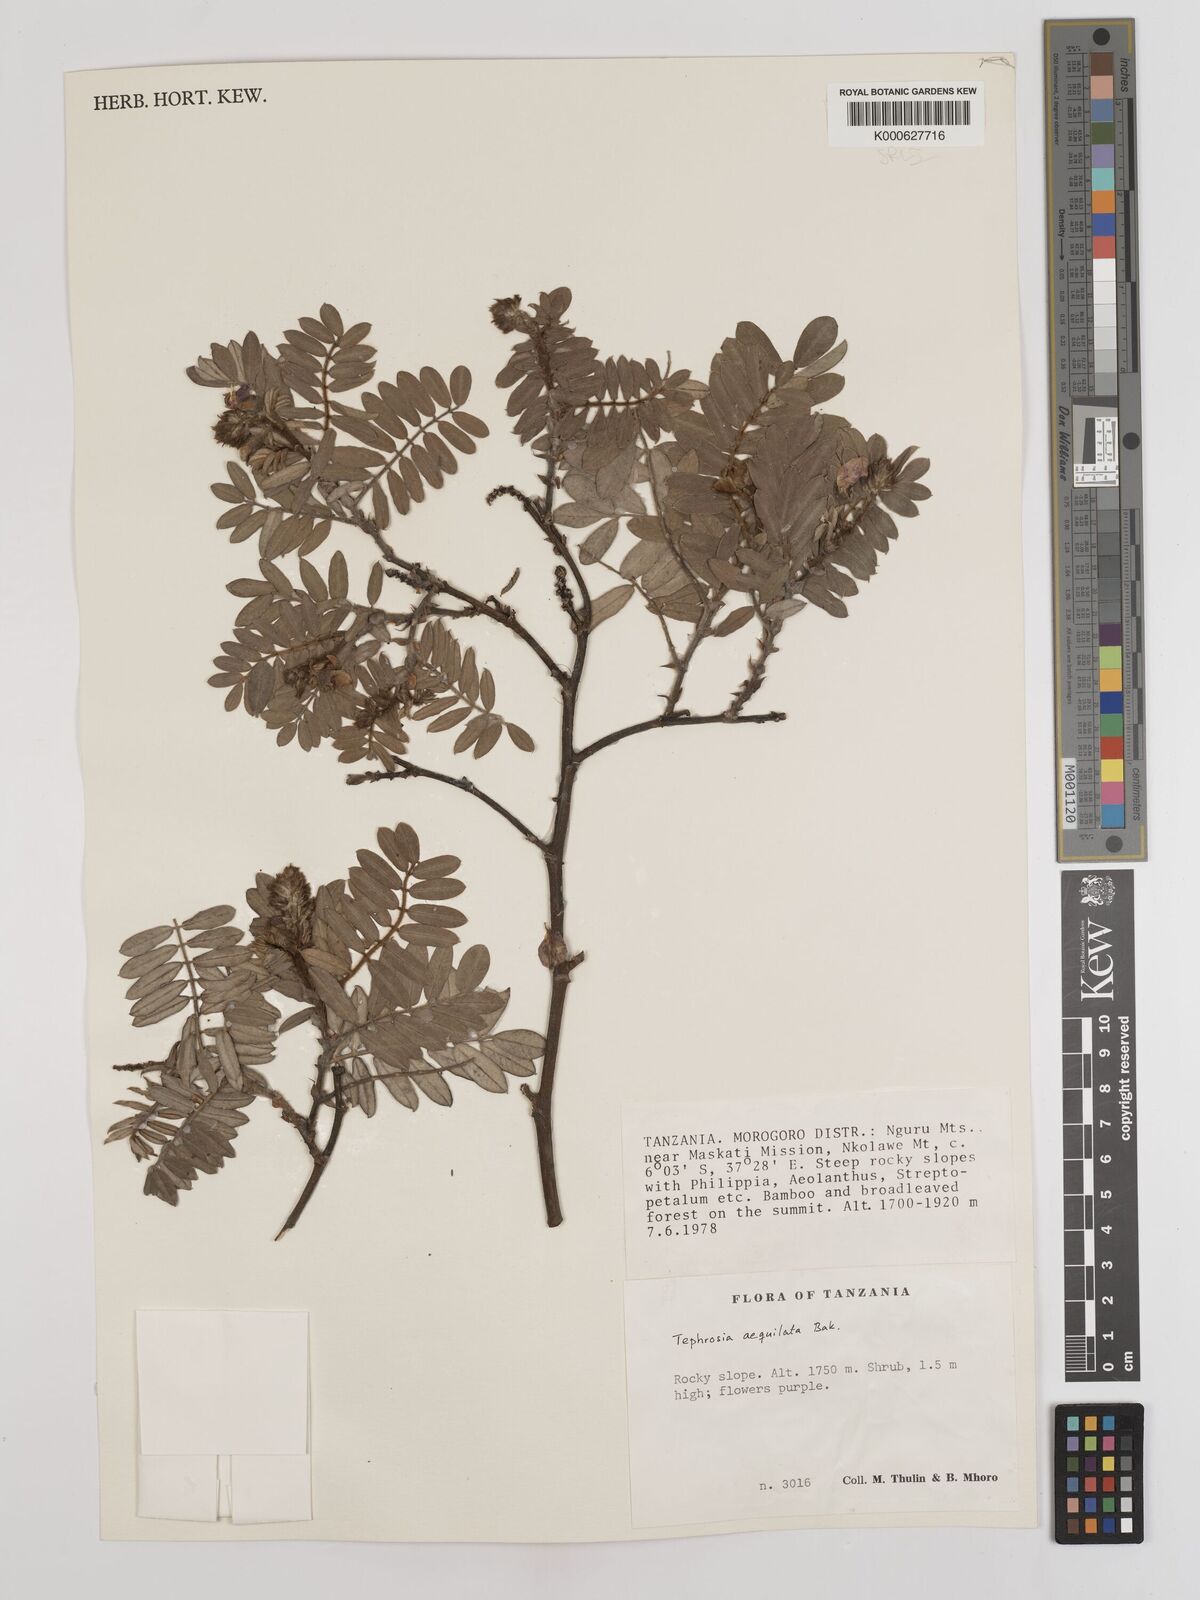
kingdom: Plantae
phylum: Tracheophyta
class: Magnoliopsida
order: Fabales
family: Fabaceae
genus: Tephrosia
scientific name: Tephrosia aequilata
